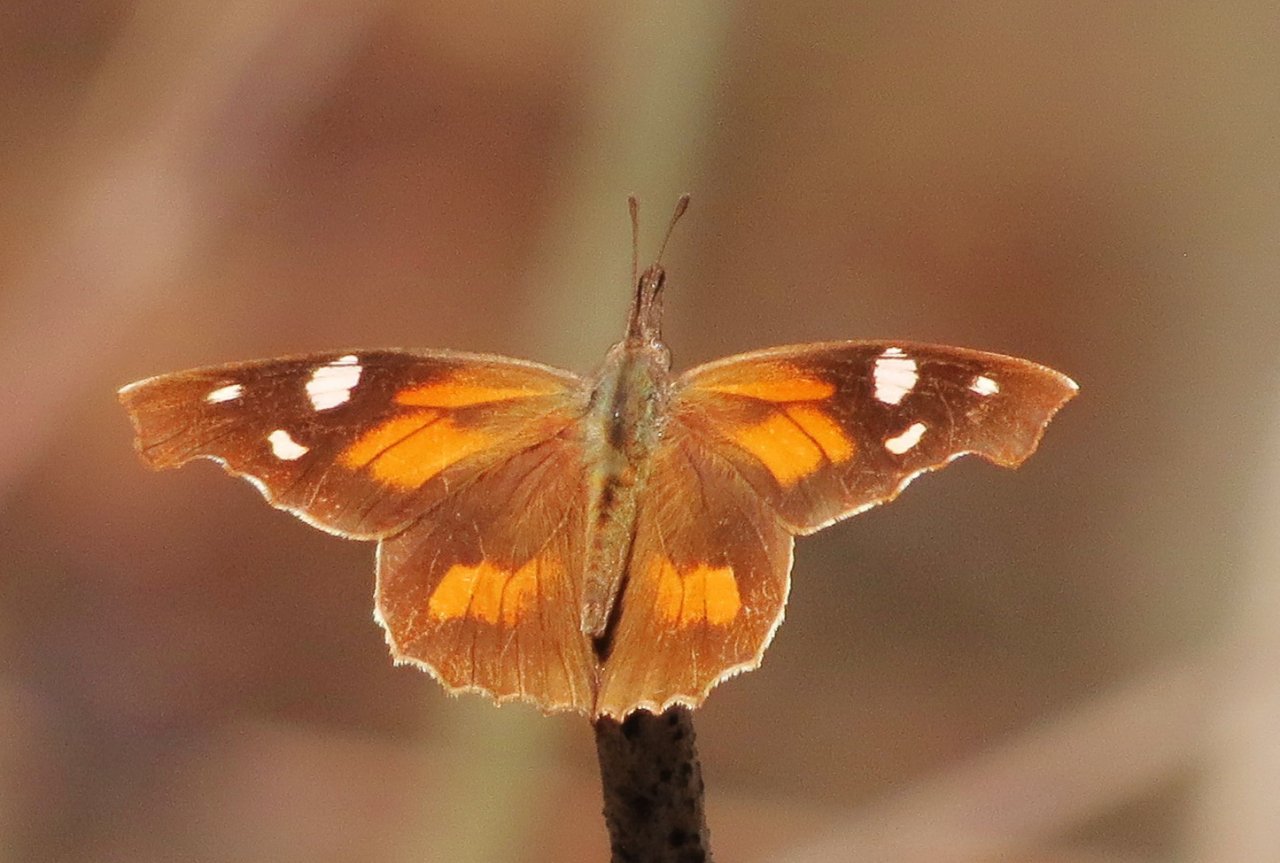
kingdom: Animalia
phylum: Arthropoda
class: Insecta
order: Lepidoptera
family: Nymphalidae
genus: Libytheana
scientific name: Libytheana carinenta
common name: American Snout
